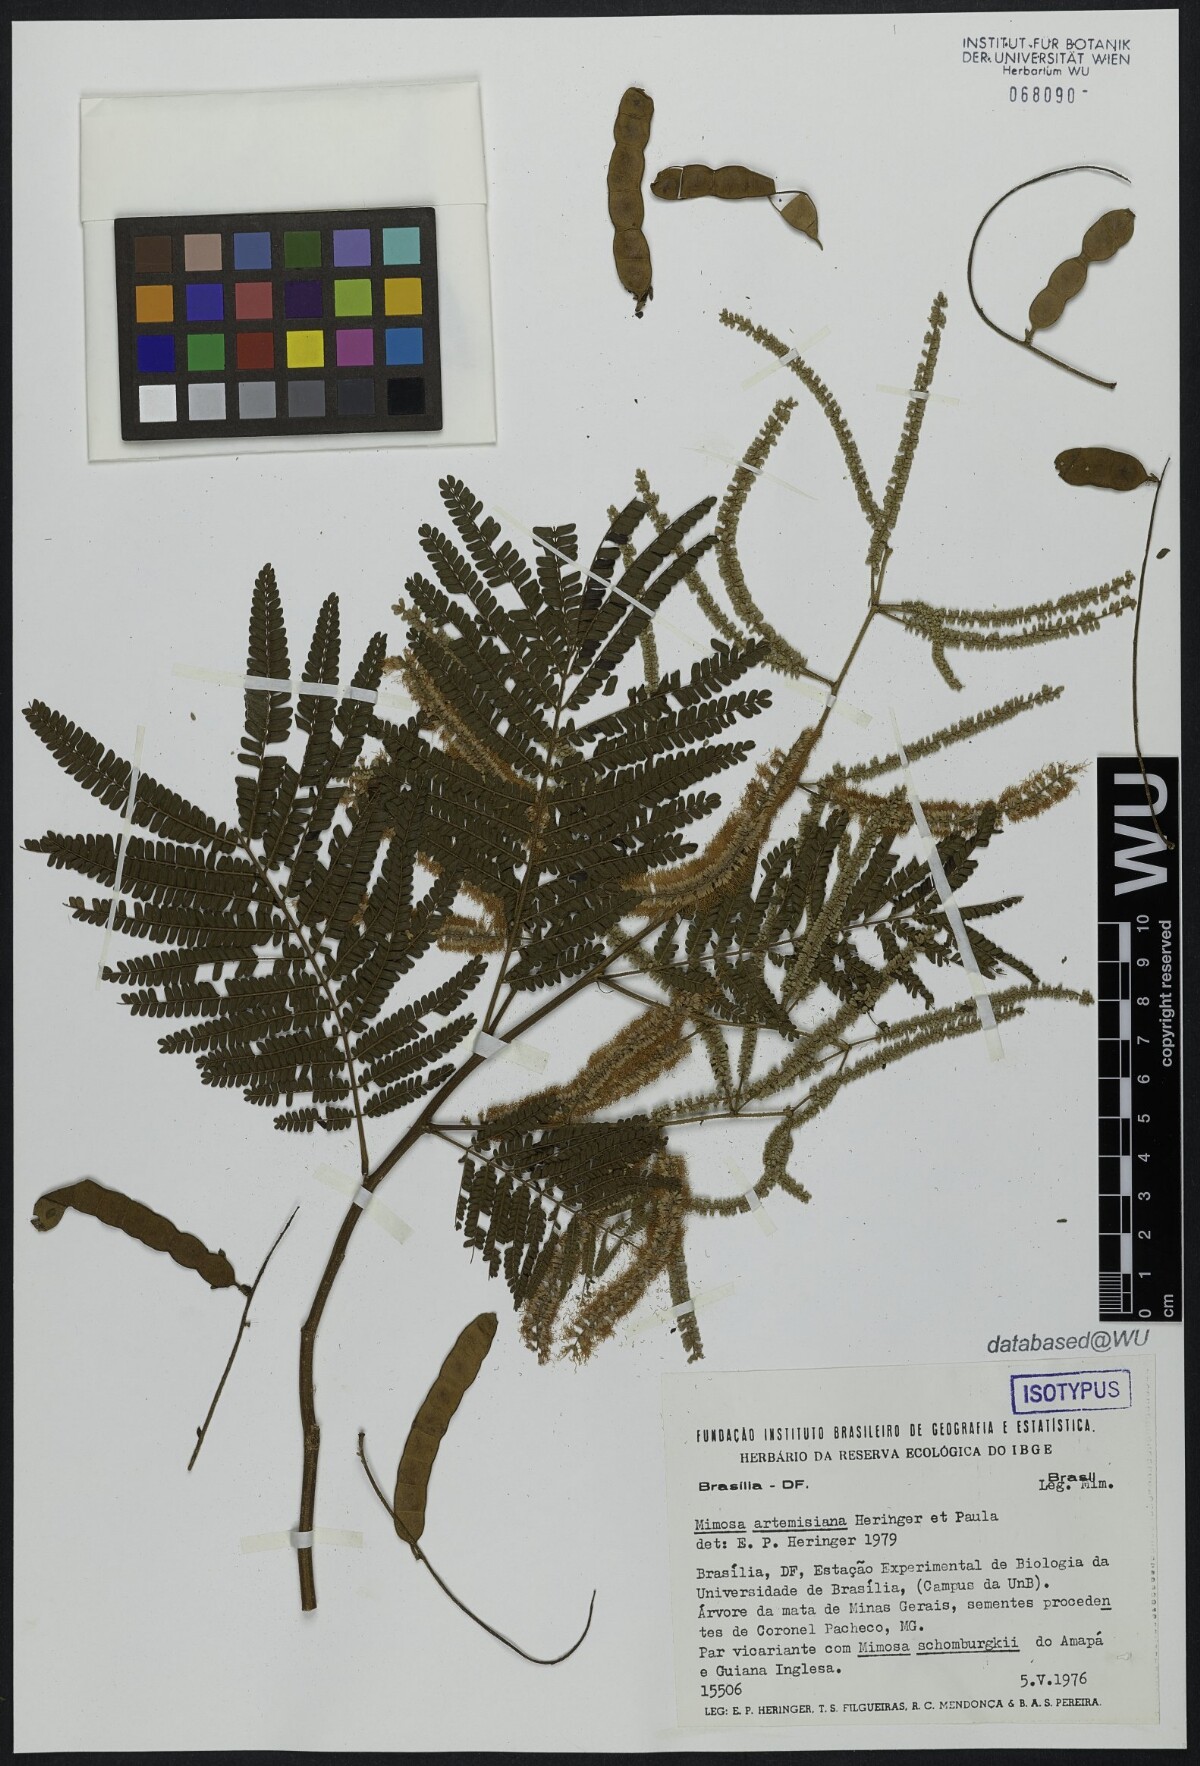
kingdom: Plantae
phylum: Tracheophyta
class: Magnoliopsida
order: Fabales
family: Fabaceae
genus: Mimosa
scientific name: Mimosa schomburgkii
